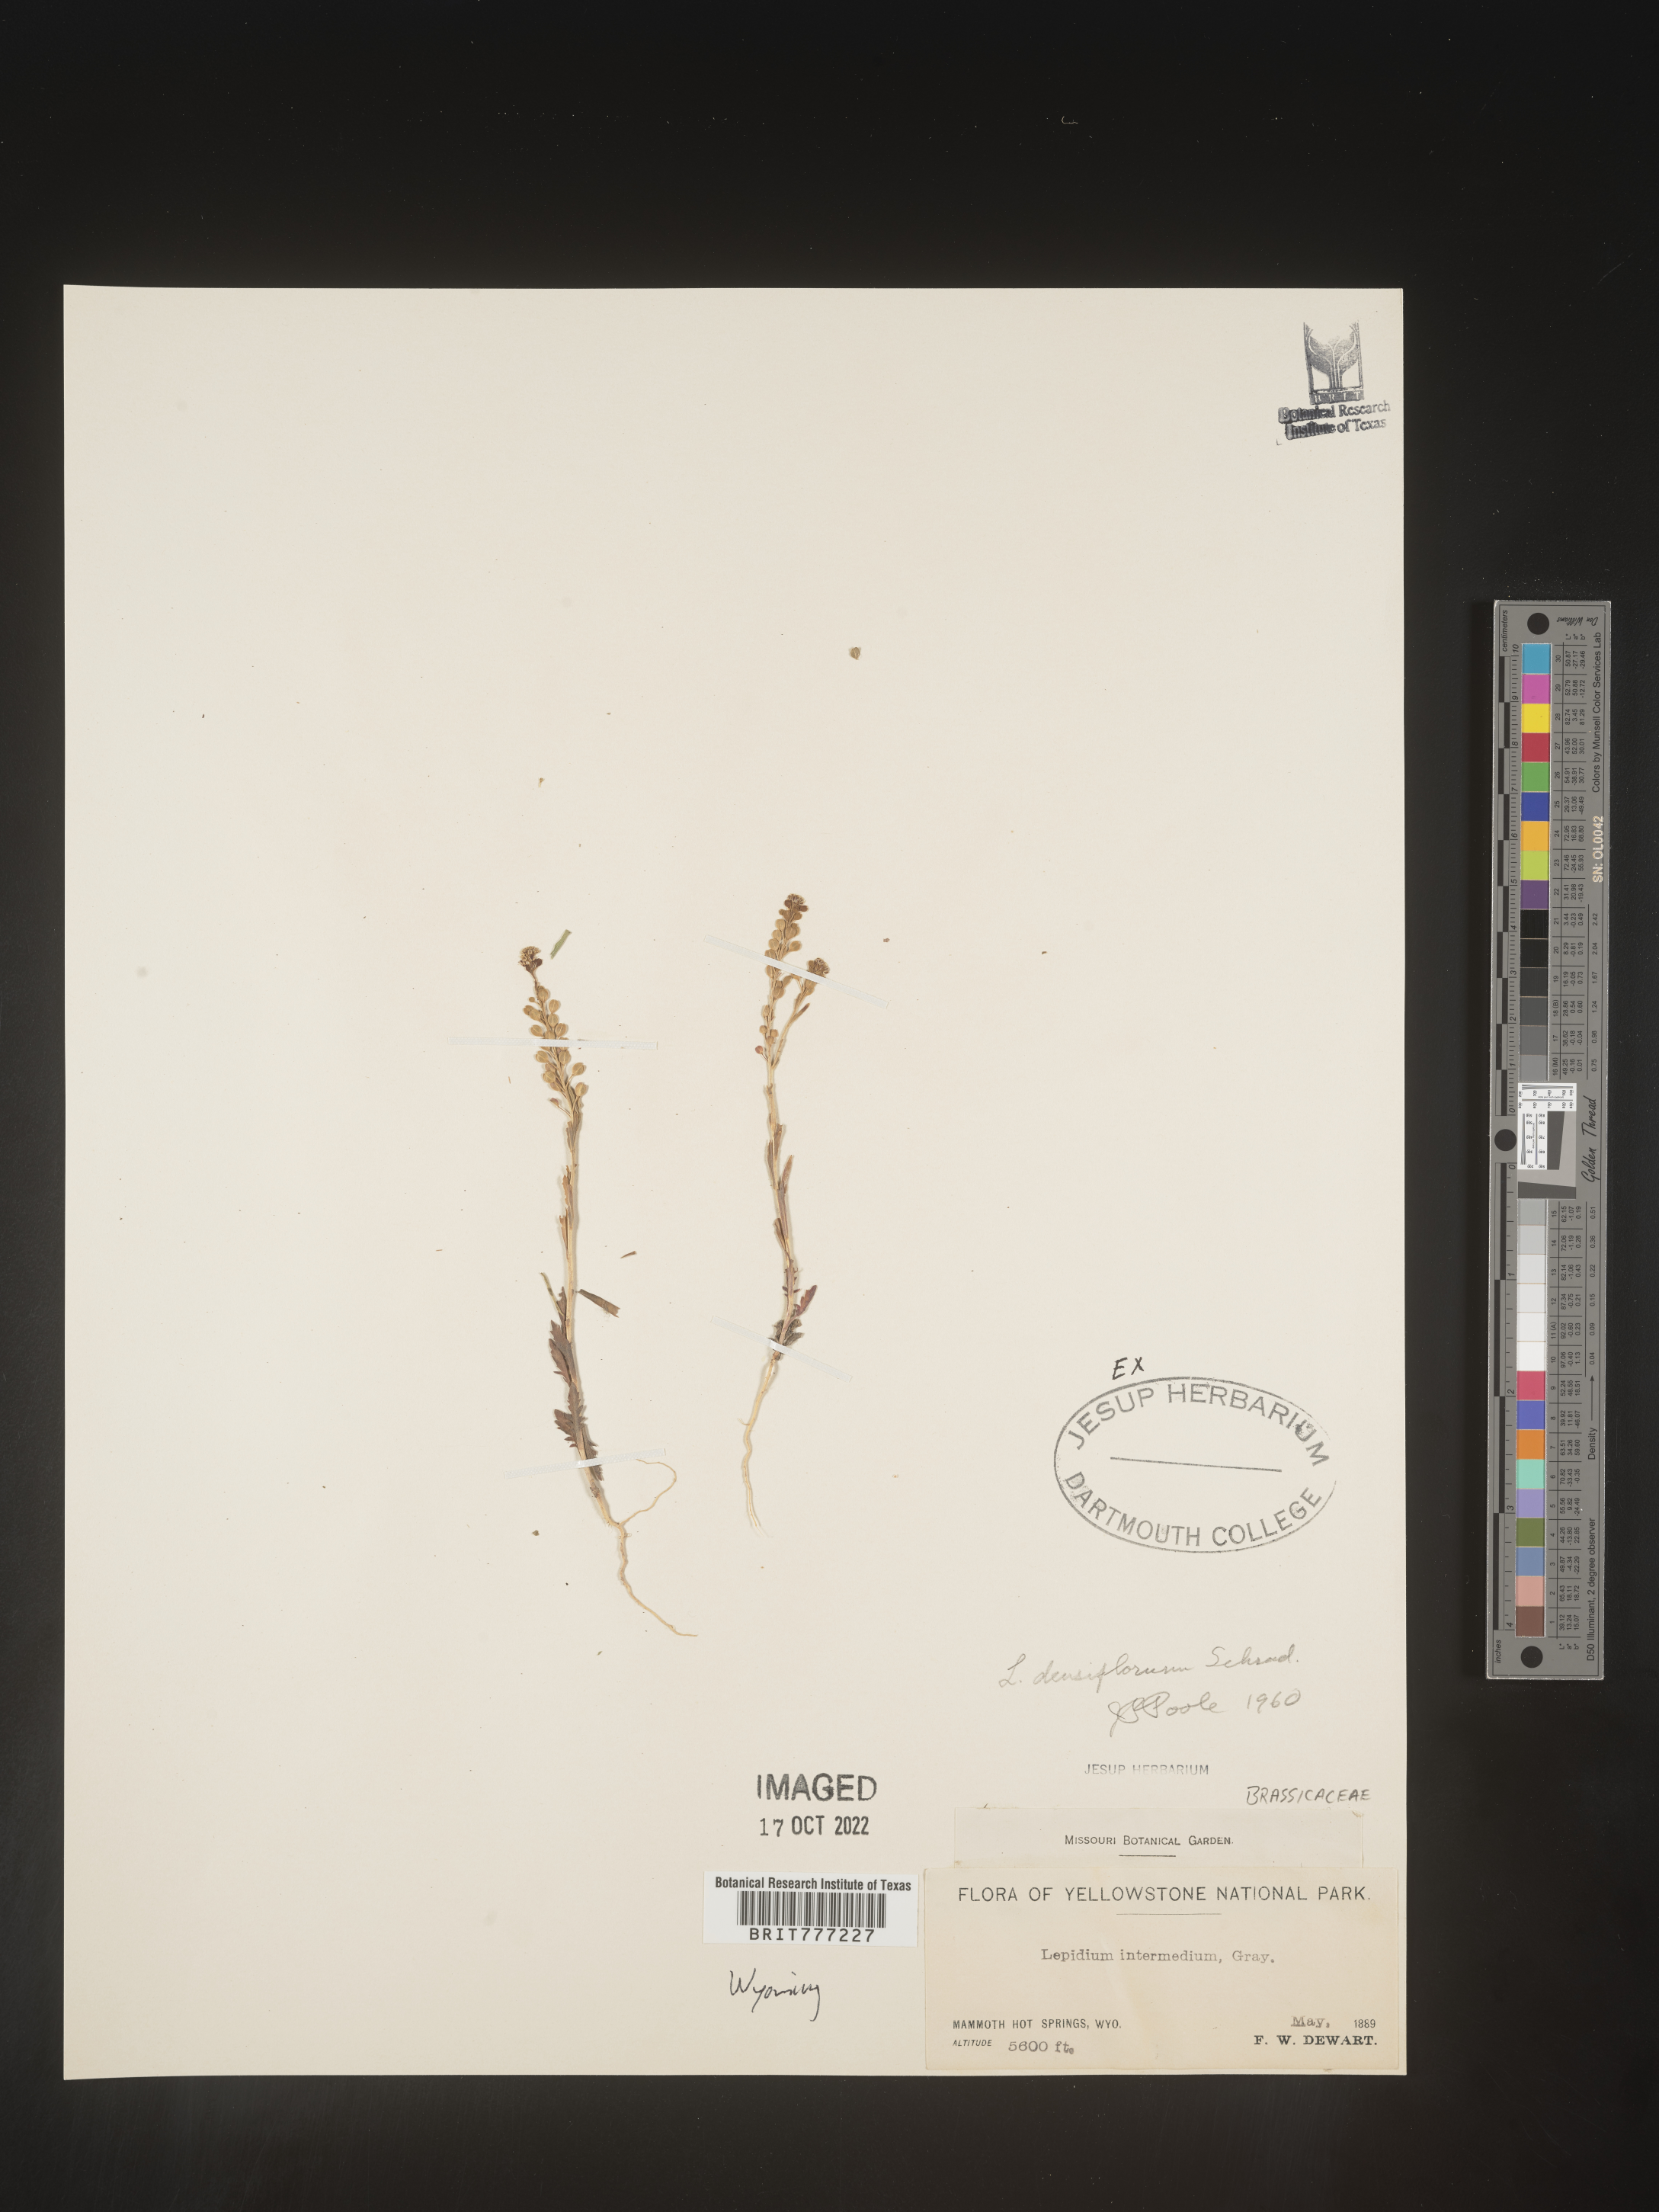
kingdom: Plantae
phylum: Tracheophyta
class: Magnoliopsida
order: Brassicales
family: Brassicaceae
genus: Lepidium
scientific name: Lepidium densiflorum
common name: Miner's pepperwort
